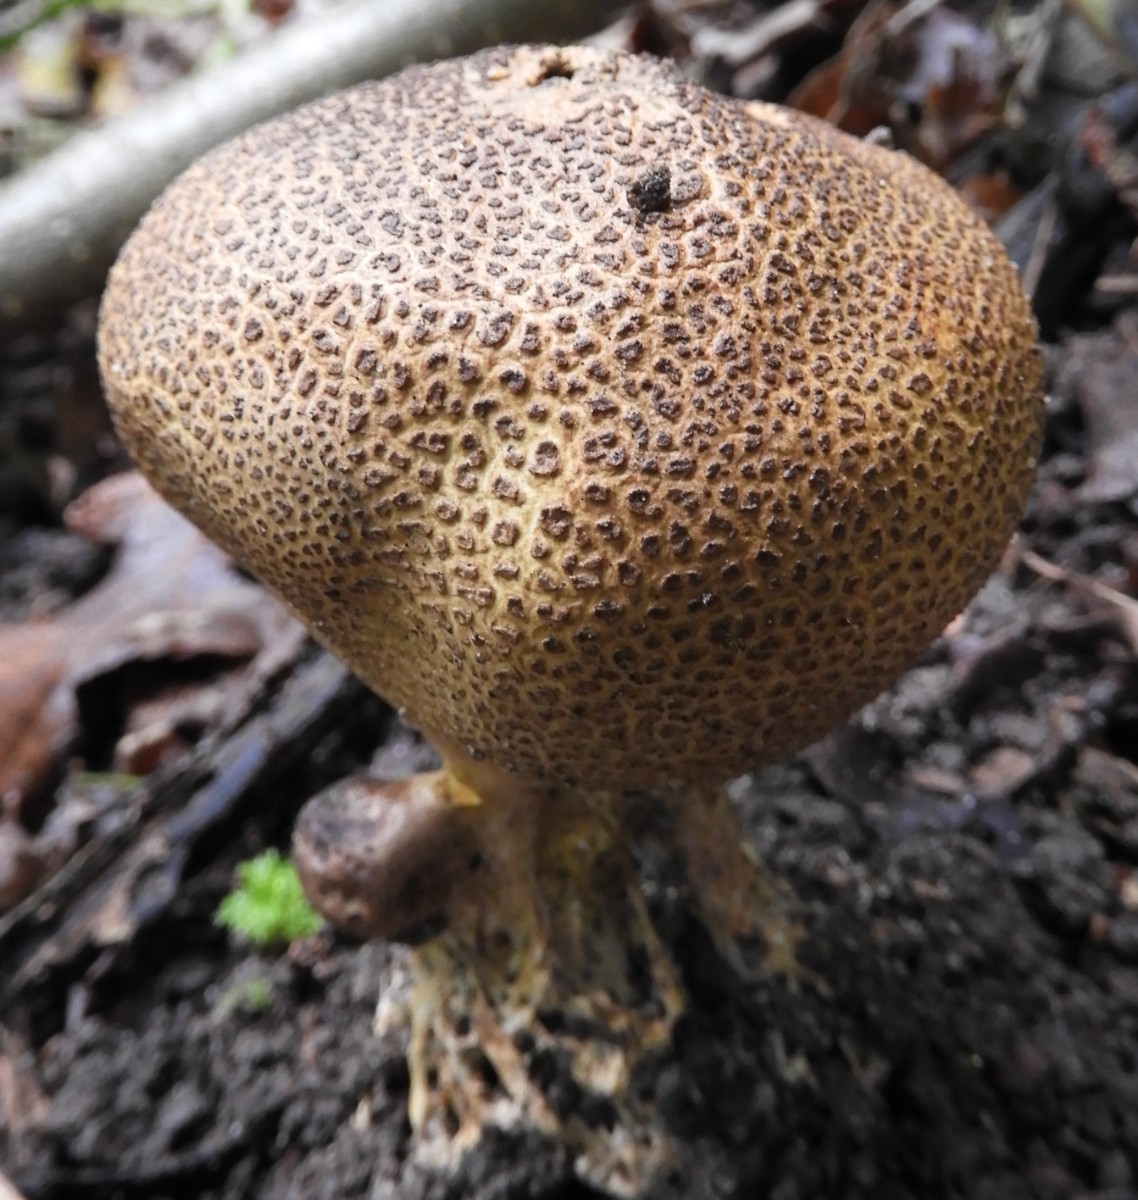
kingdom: Fungi
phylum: Basidiomycota
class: Agaricomycetes
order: Boletales
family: Sclerodermataceae
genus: Scleroderma
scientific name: Scleroderma verrucosum
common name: stilket bruskbold
